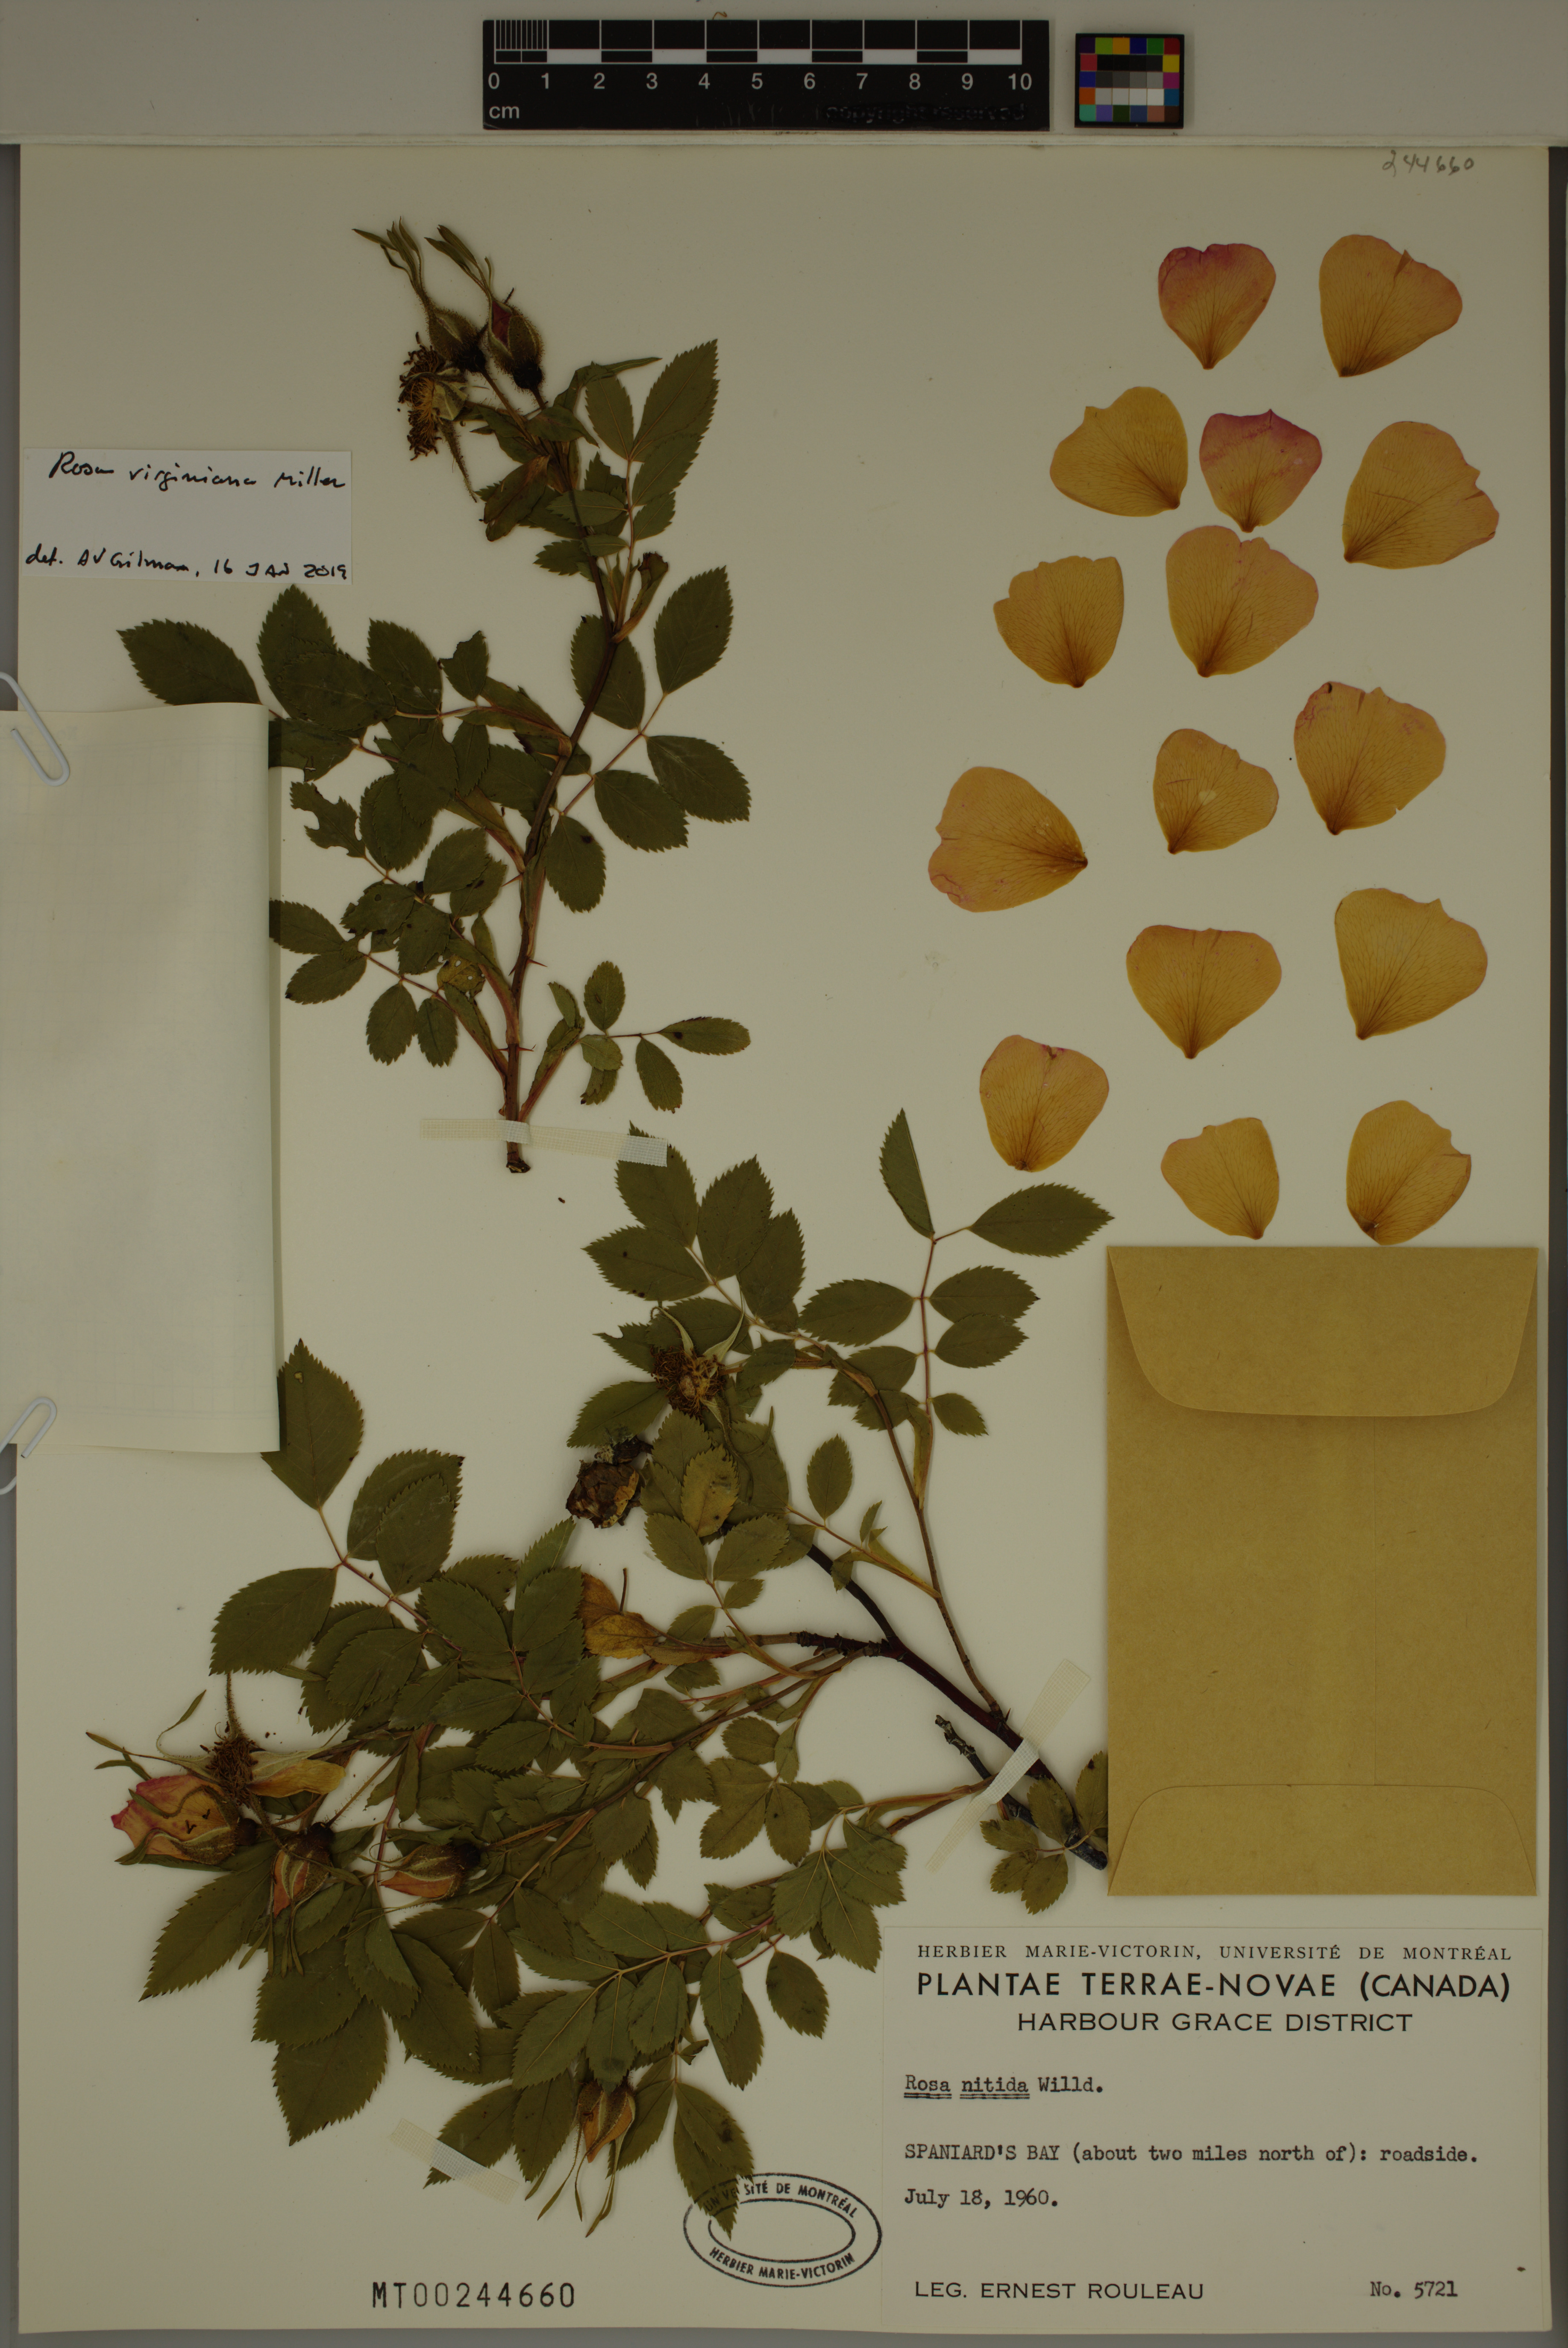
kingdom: Plantae
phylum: Tracheophyta
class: Magnoliopsida
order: Rosales
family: Rosaceae
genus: Rosa
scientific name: Rosa carolina
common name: Pasture rose
